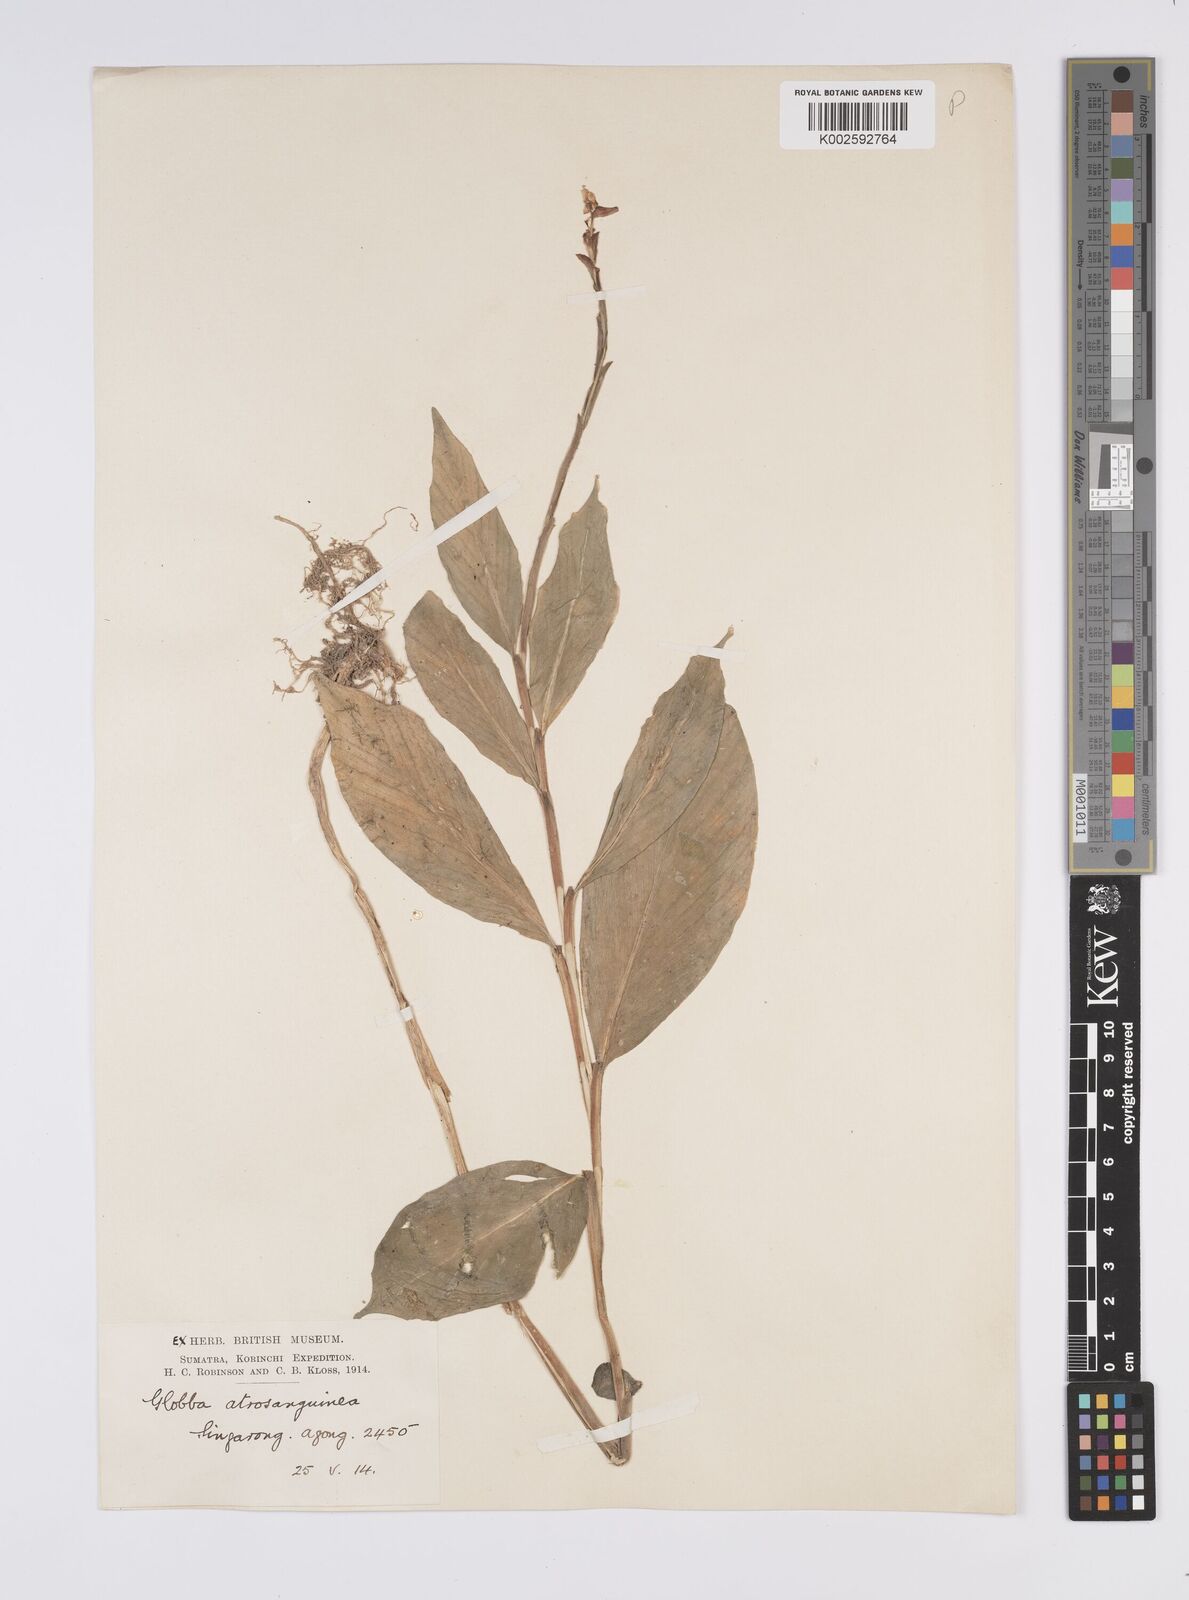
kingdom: Plantae
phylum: Tracheophyta
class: Liliopsida
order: Zingiberales
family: Zingiberaceae
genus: Globba
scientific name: Globba atrosanguinea
